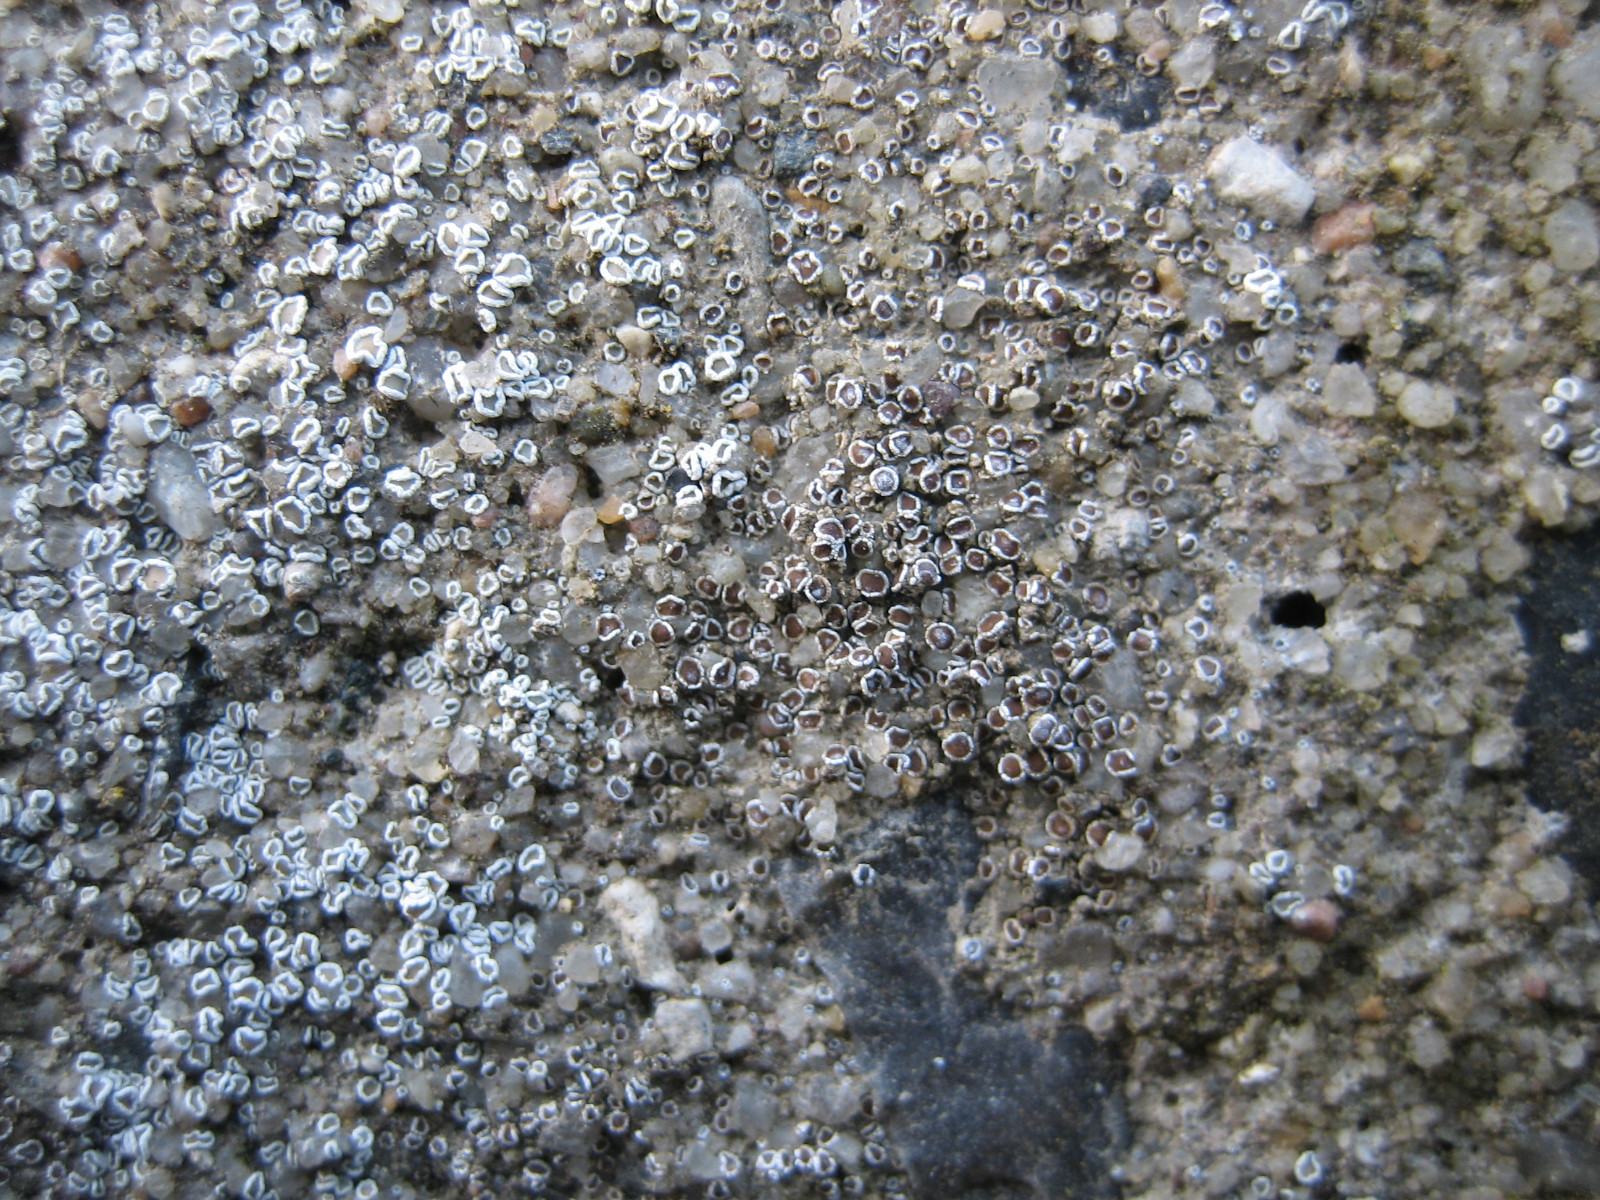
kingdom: Fungi
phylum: Ascomycota
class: Lecanoromycetes
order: Lecanorales
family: Lecanoraceae
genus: Polyozosia
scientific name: Polyozosia dispersa
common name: spredt kantskivelav
